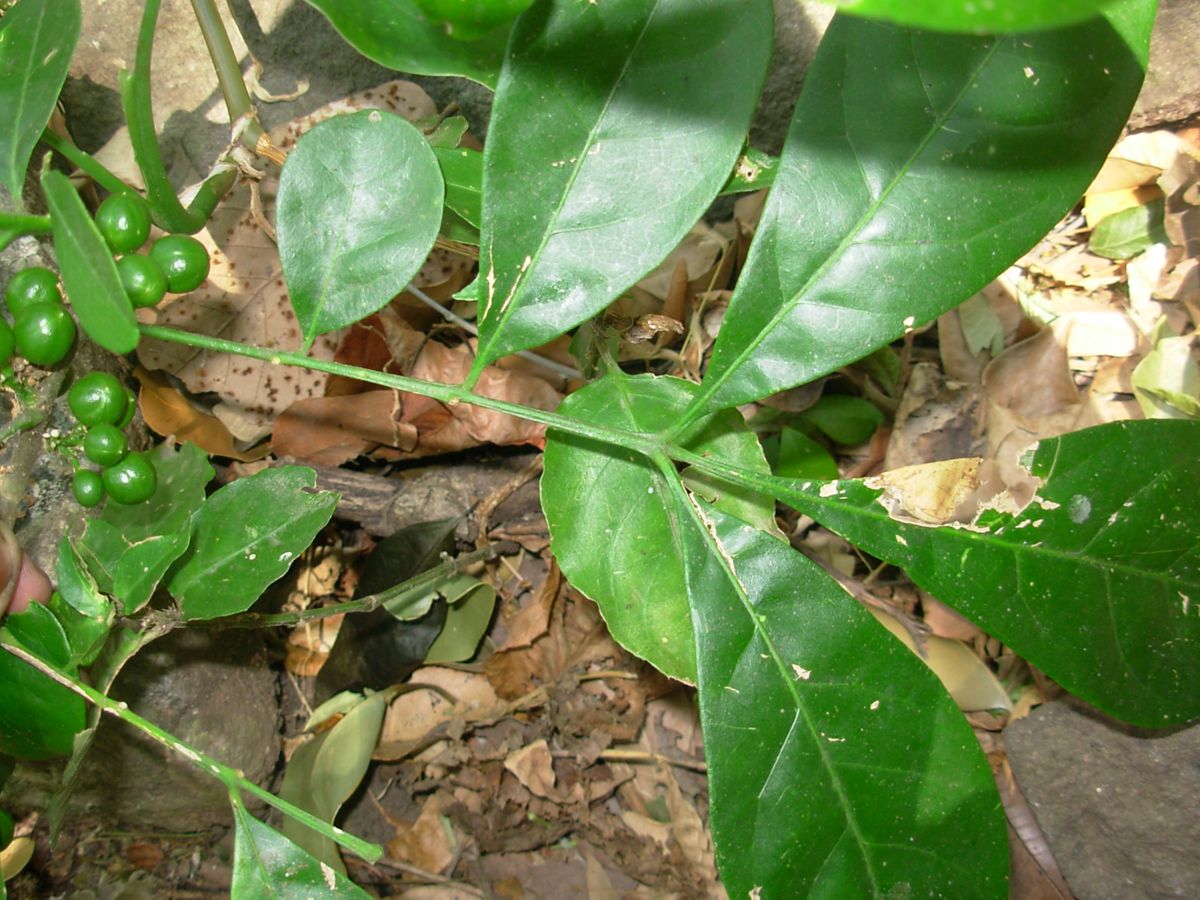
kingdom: Plantae
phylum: Tracheophyta
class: Magnoliopsida
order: Sapindales
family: Meliaceae
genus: Trichilia
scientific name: Trichilia havanensis
